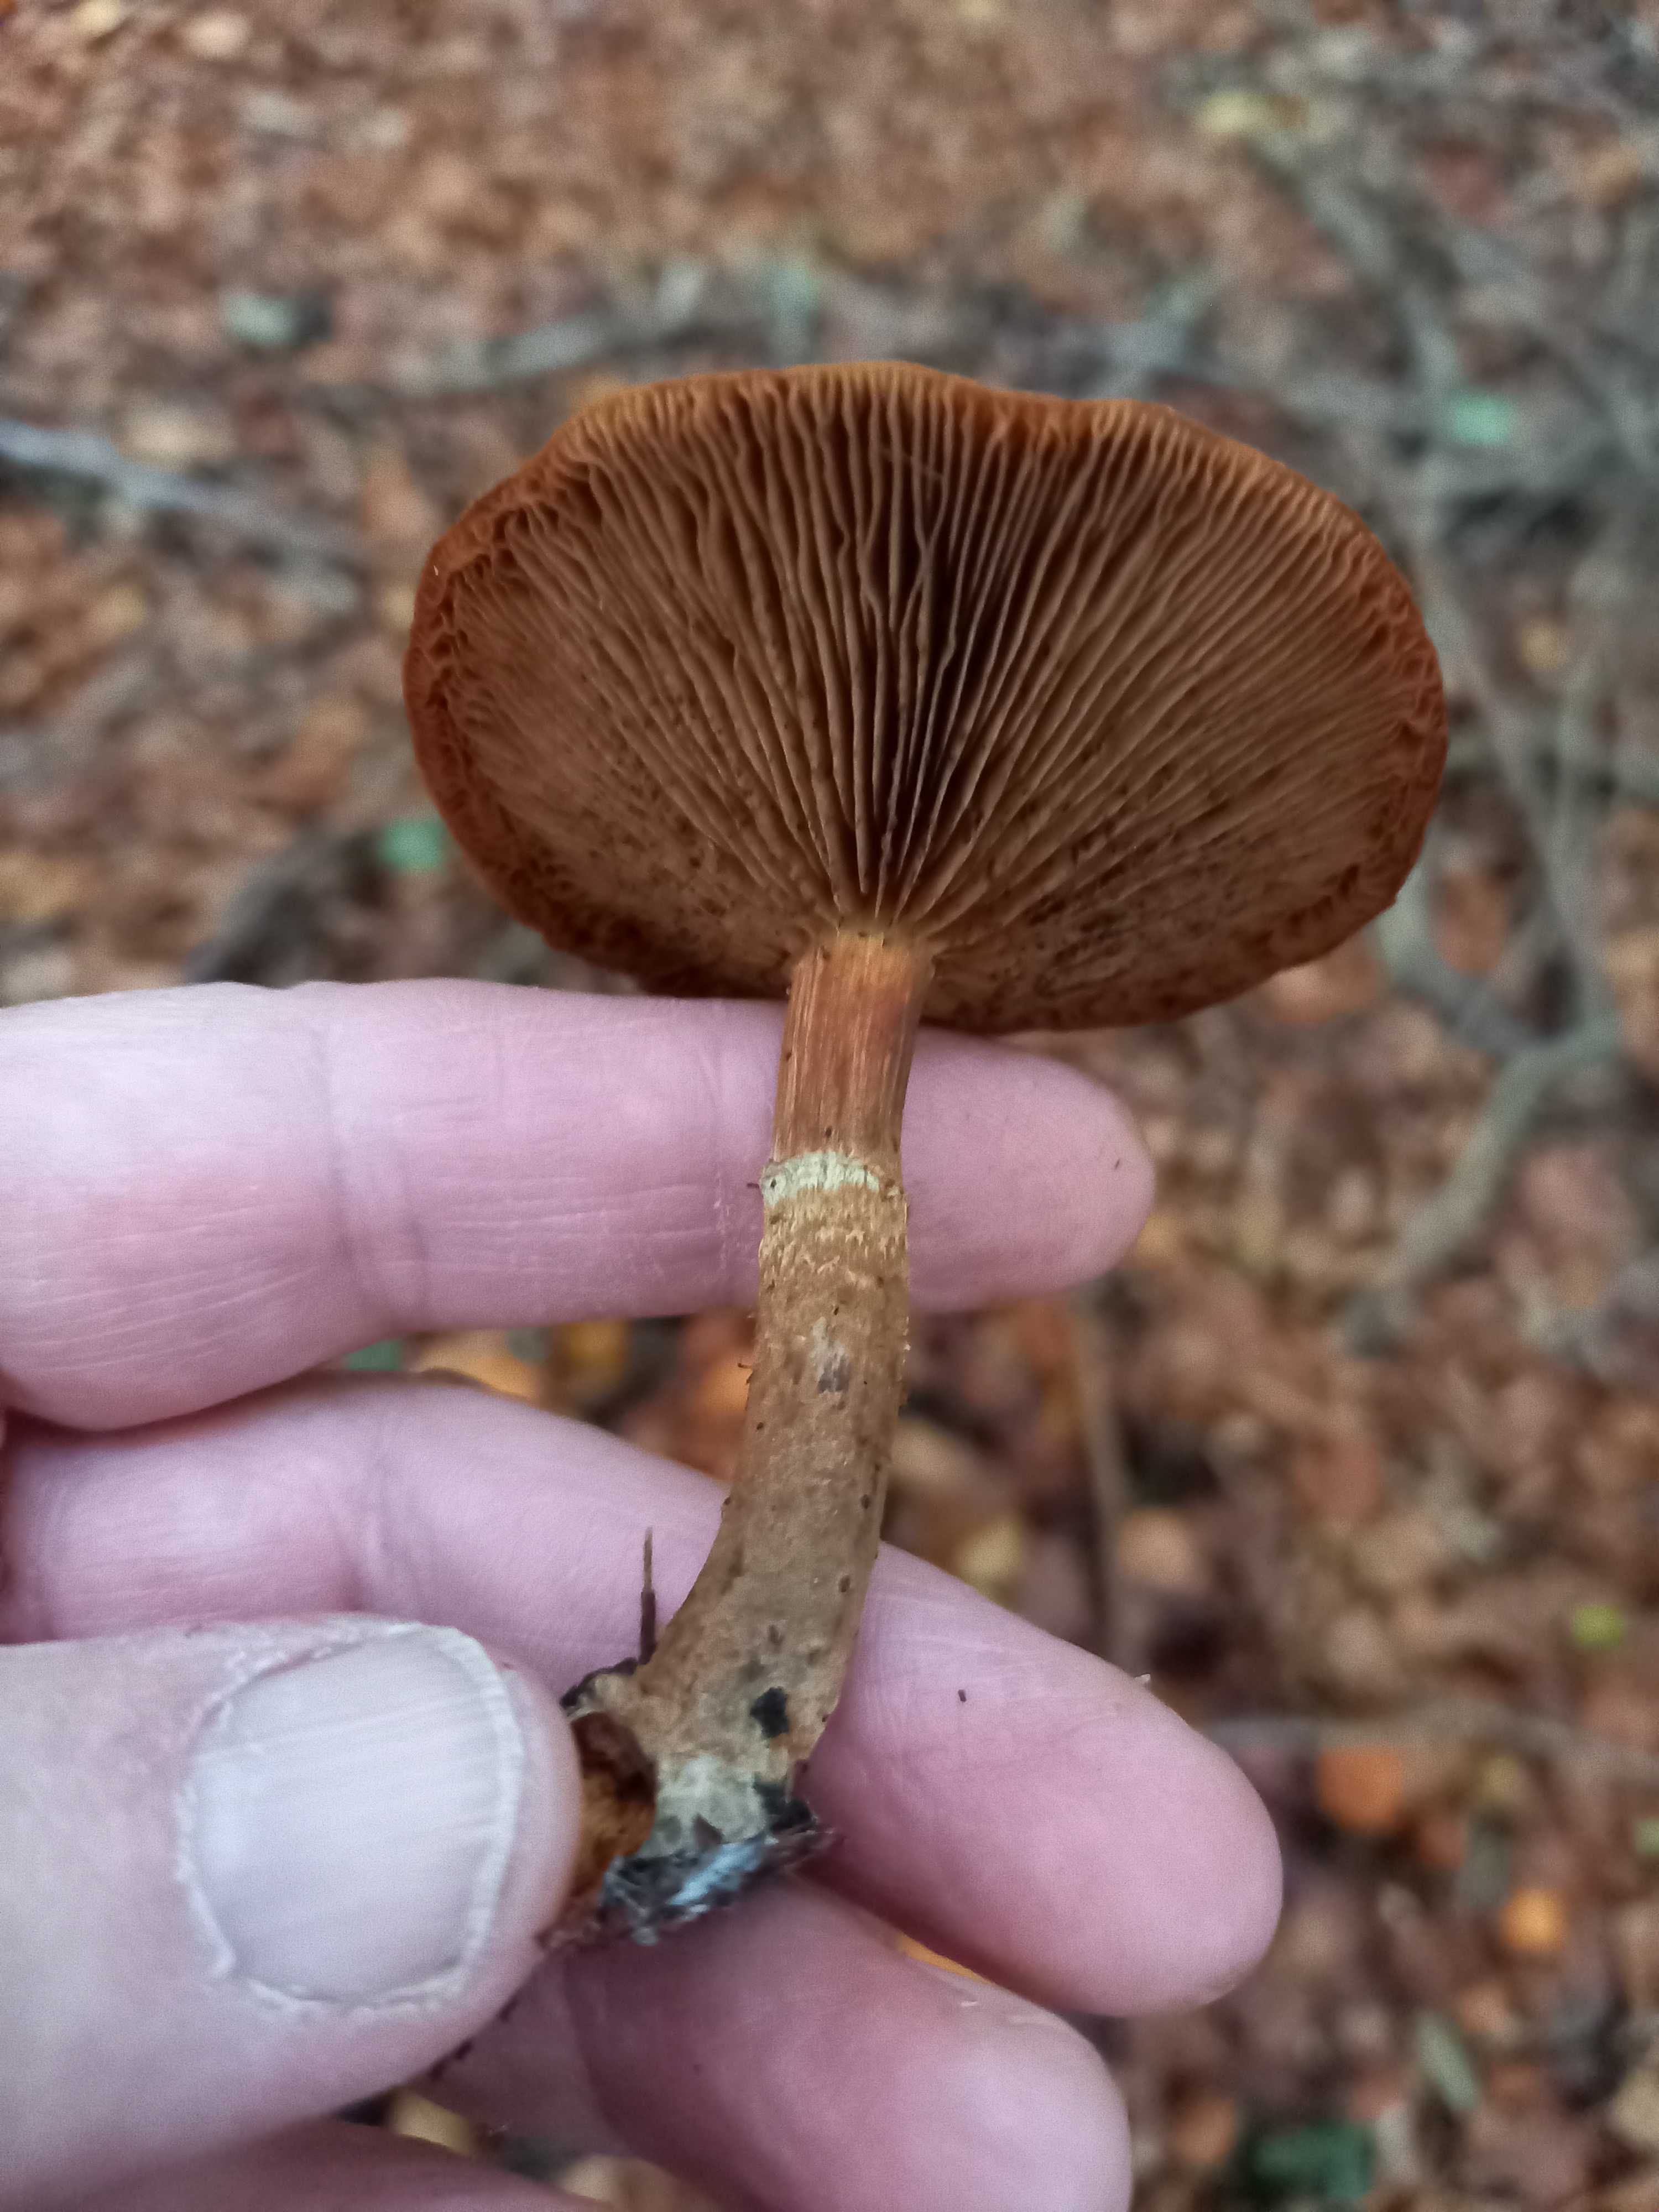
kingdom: Fungi
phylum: Basidiomycota
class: Agaricomycetes
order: Agaricales
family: Strophariaceae
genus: Kuehneromyces
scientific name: Kuehneromyces mutabilis
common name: foranderlig skælhat
